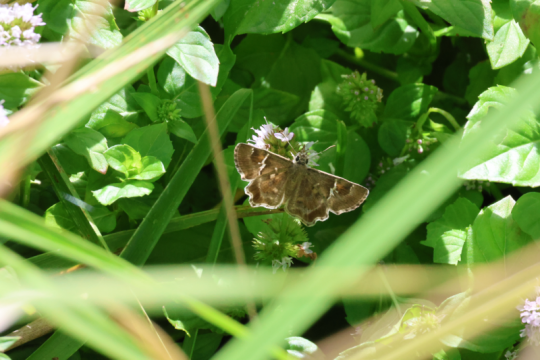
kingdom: Animalia
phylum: Arthropoda
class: Insecta
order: Lepidoptera
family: Hesperiidae
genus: Systasea
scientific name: Systasea zampa
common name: Arizona Powdered-Skipper
